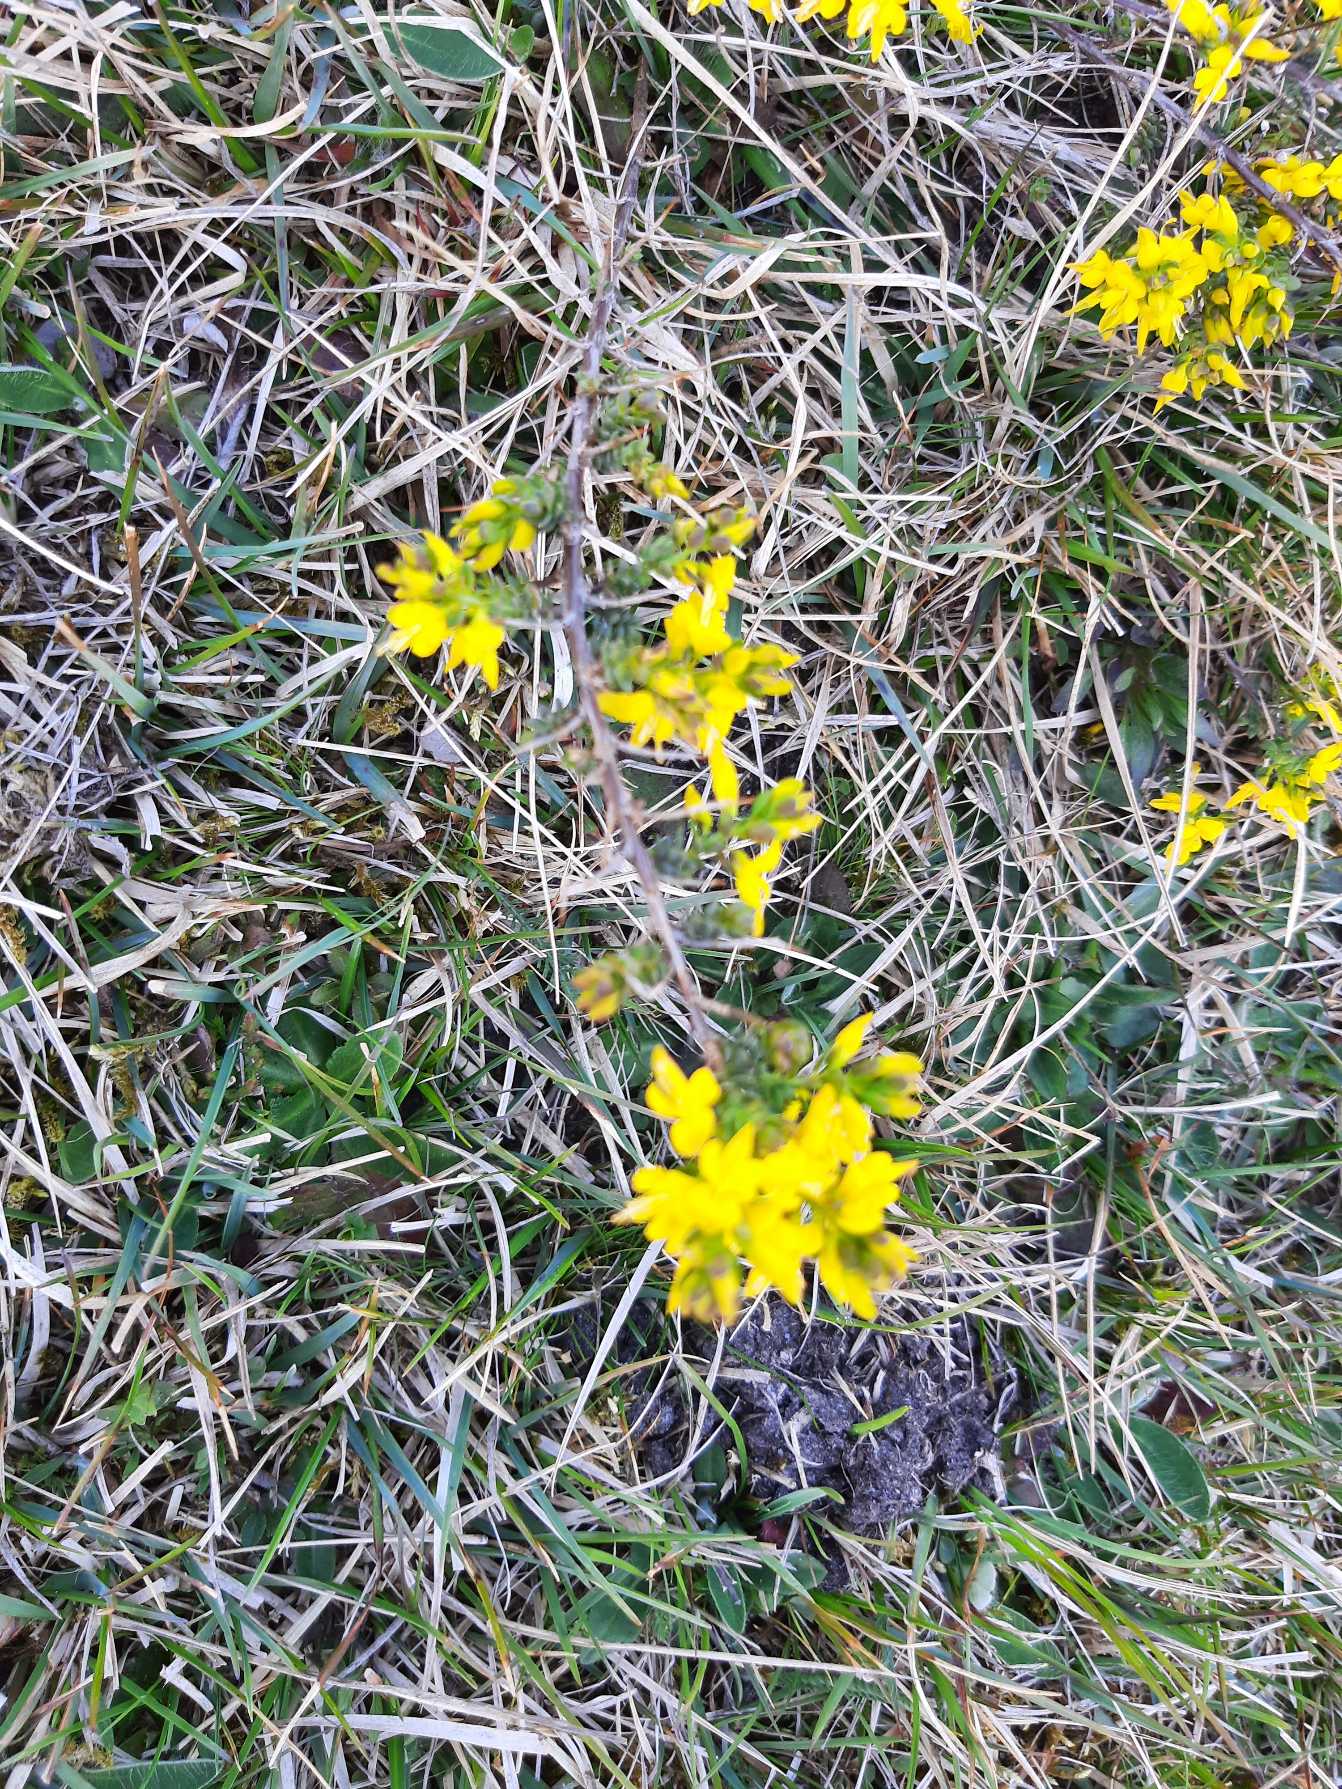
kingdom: Plantae
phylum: Tracheophyta
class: Magnoliopsida
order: Fabales
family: Fabaceae
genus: Genista
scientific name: Genista anglica
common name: Engelsk visse
